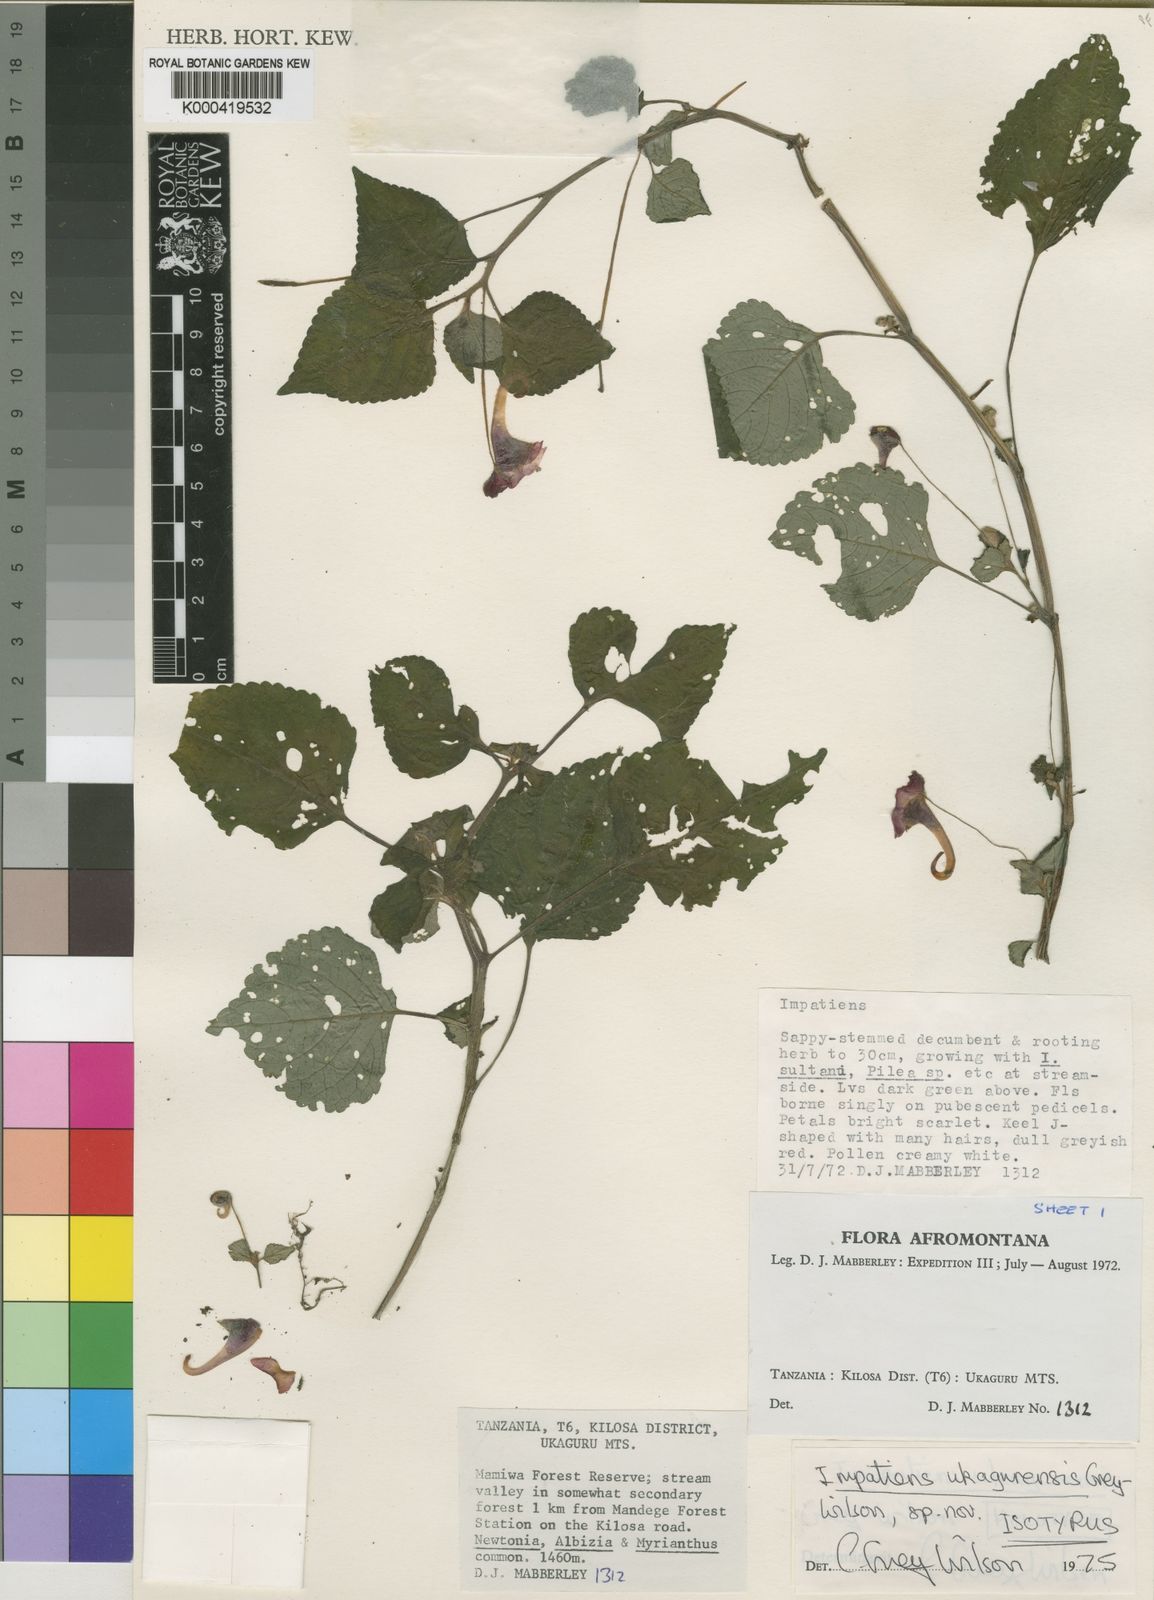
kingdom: Plantae
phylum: Tracheophyta
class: Magnoliopsida
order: Ericales
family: Balsaminaceae
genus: Impatiens
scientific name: Impatiens ukagurensis
